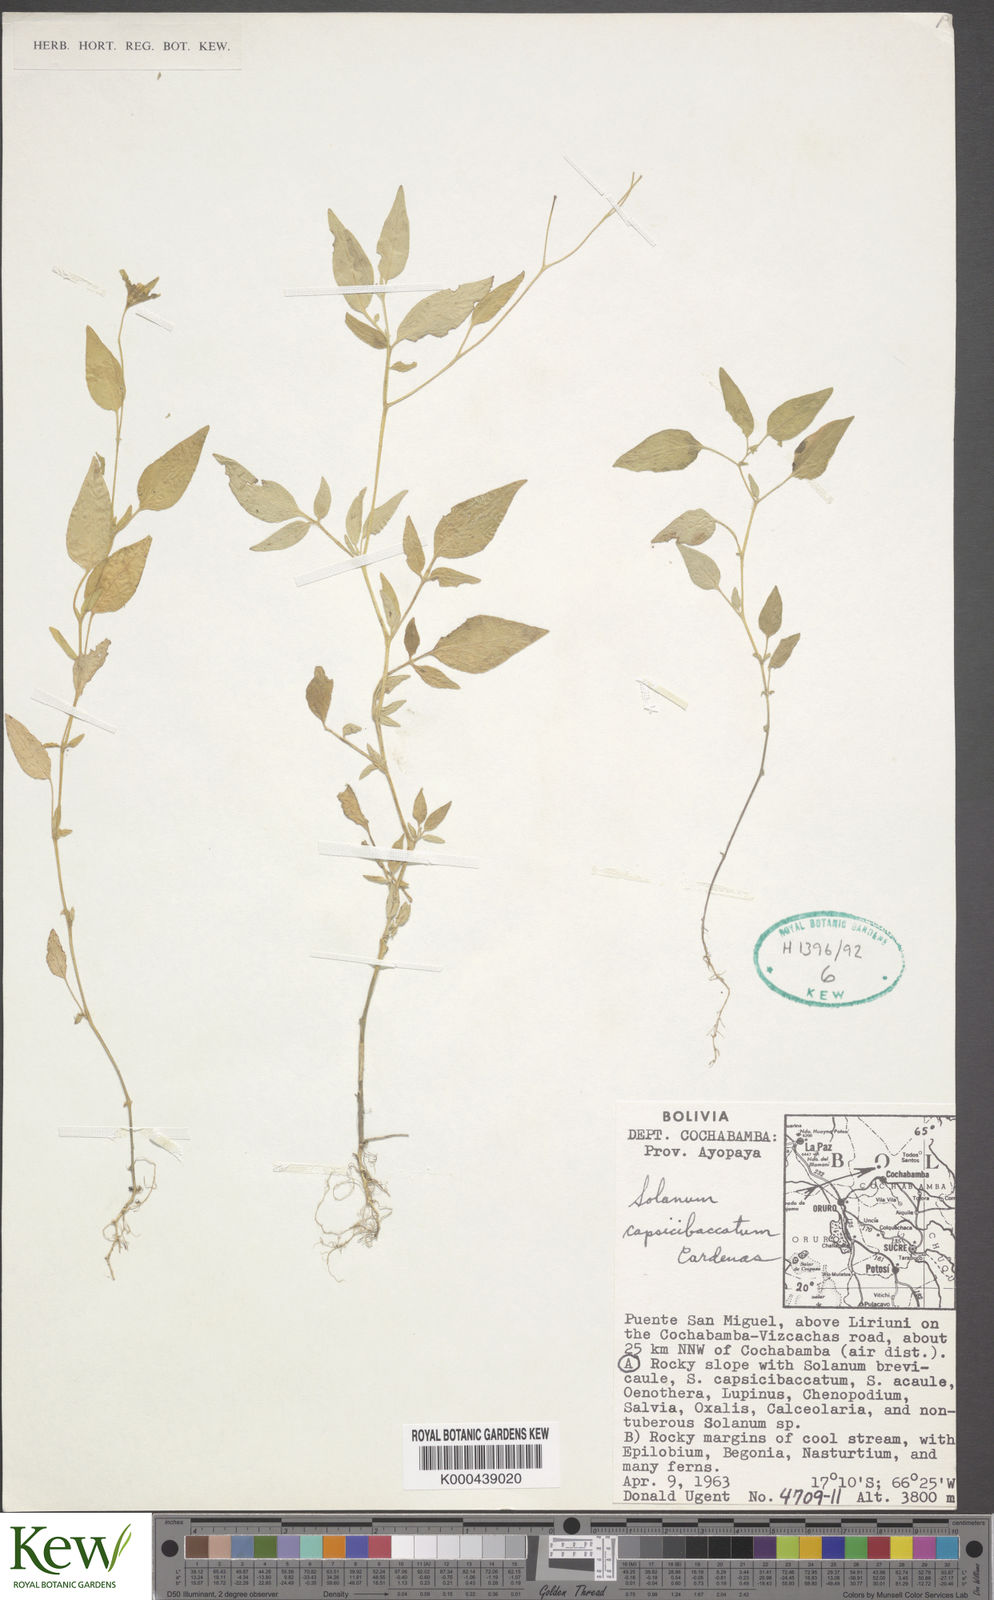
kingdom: Plantae
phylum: Tracheophyta
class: Magnoliopsida
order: Solanales
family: Solanaceae
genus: Solanum
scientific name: Solanum stipuloideum
